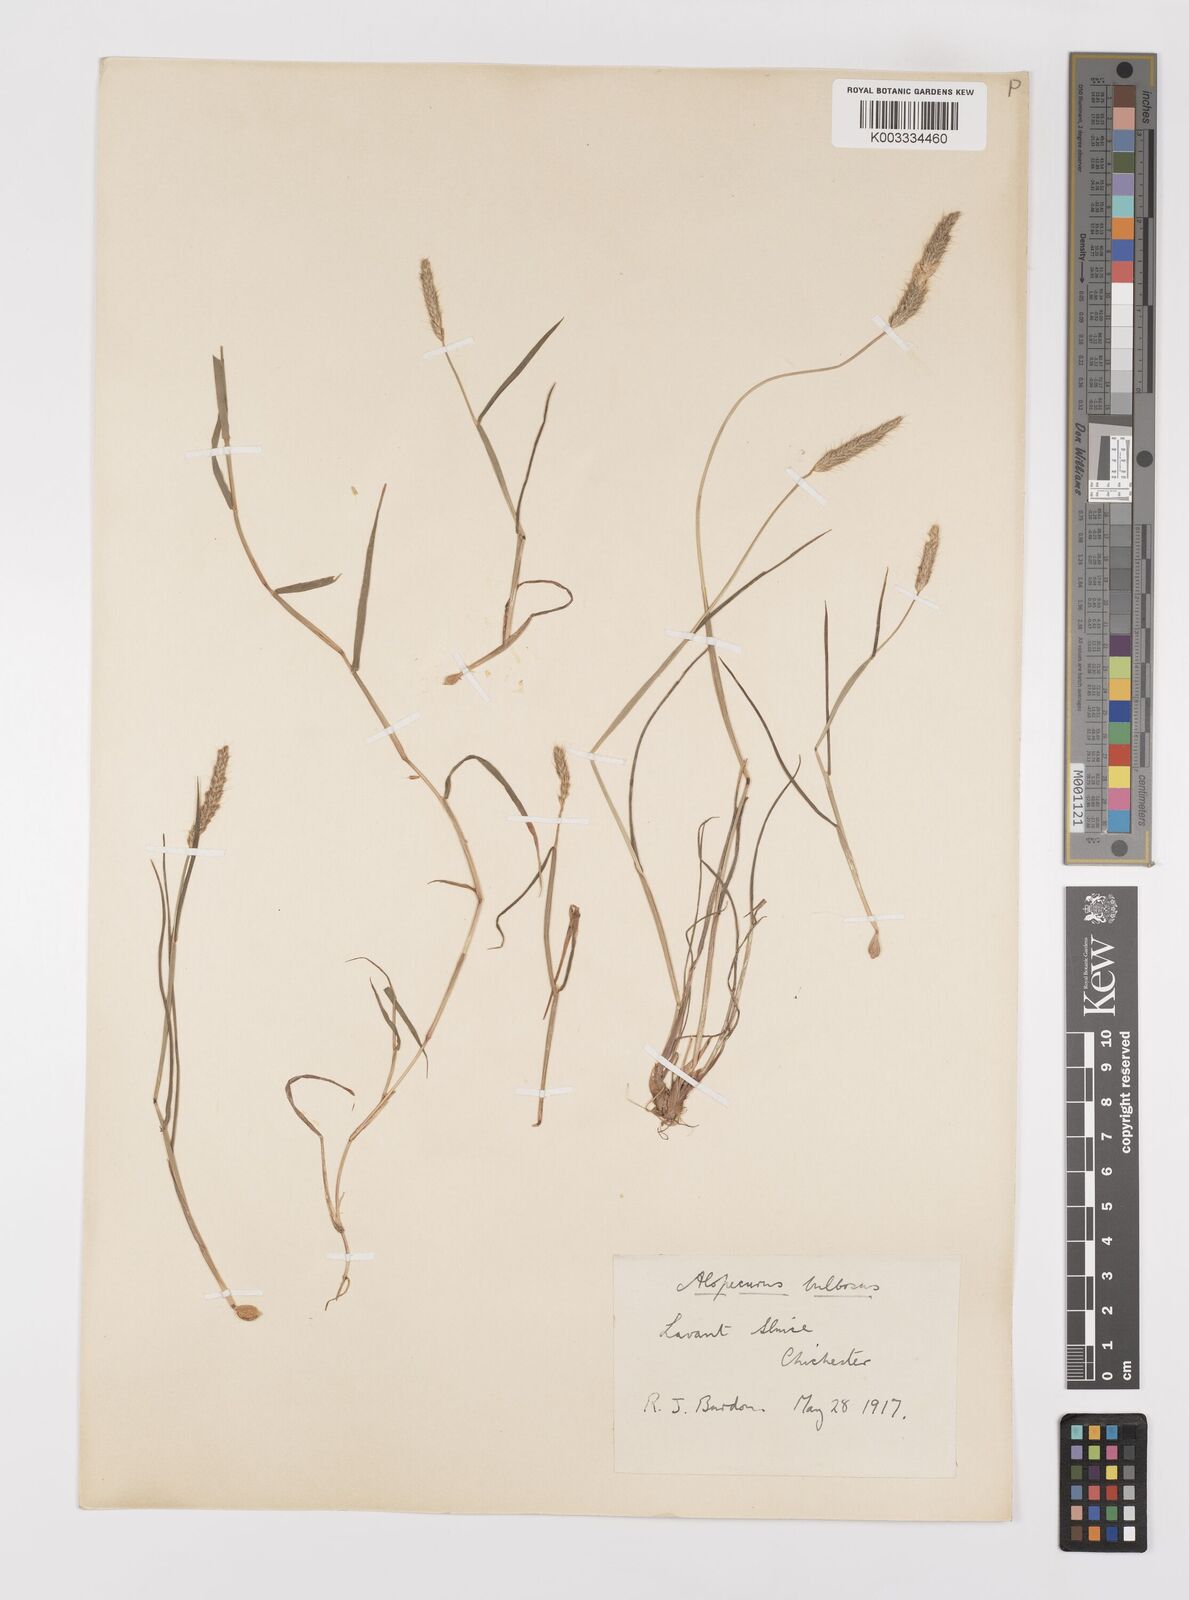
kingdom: Plantae
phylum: Tracheophyta
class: Liliopsida
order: Poales
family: Poaceae
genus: Alopecurus
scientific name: Alopecurus bulbosus
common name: Bulbous foxtail
